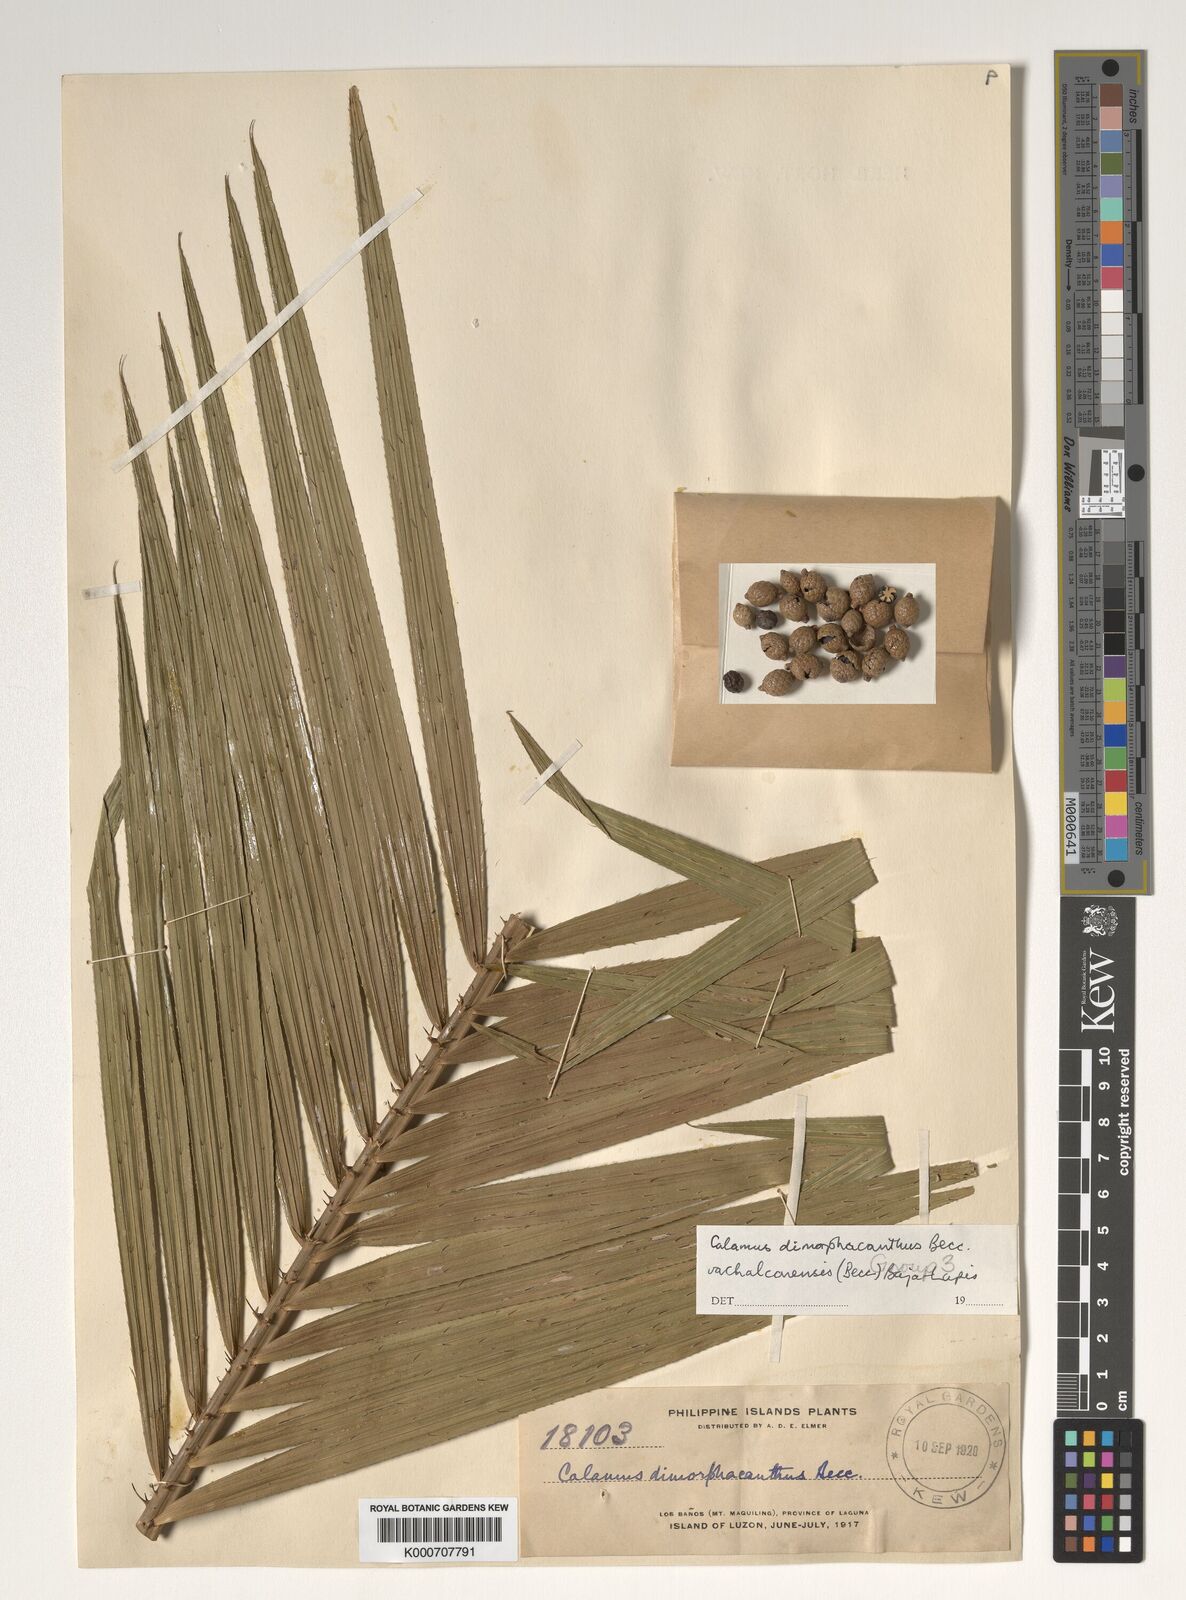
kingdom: Plantae
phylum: Tracheophyta
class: Liliopsida
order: Arecales
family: Arecaceae
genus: Calamus
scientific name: Calamus siphonospathus
